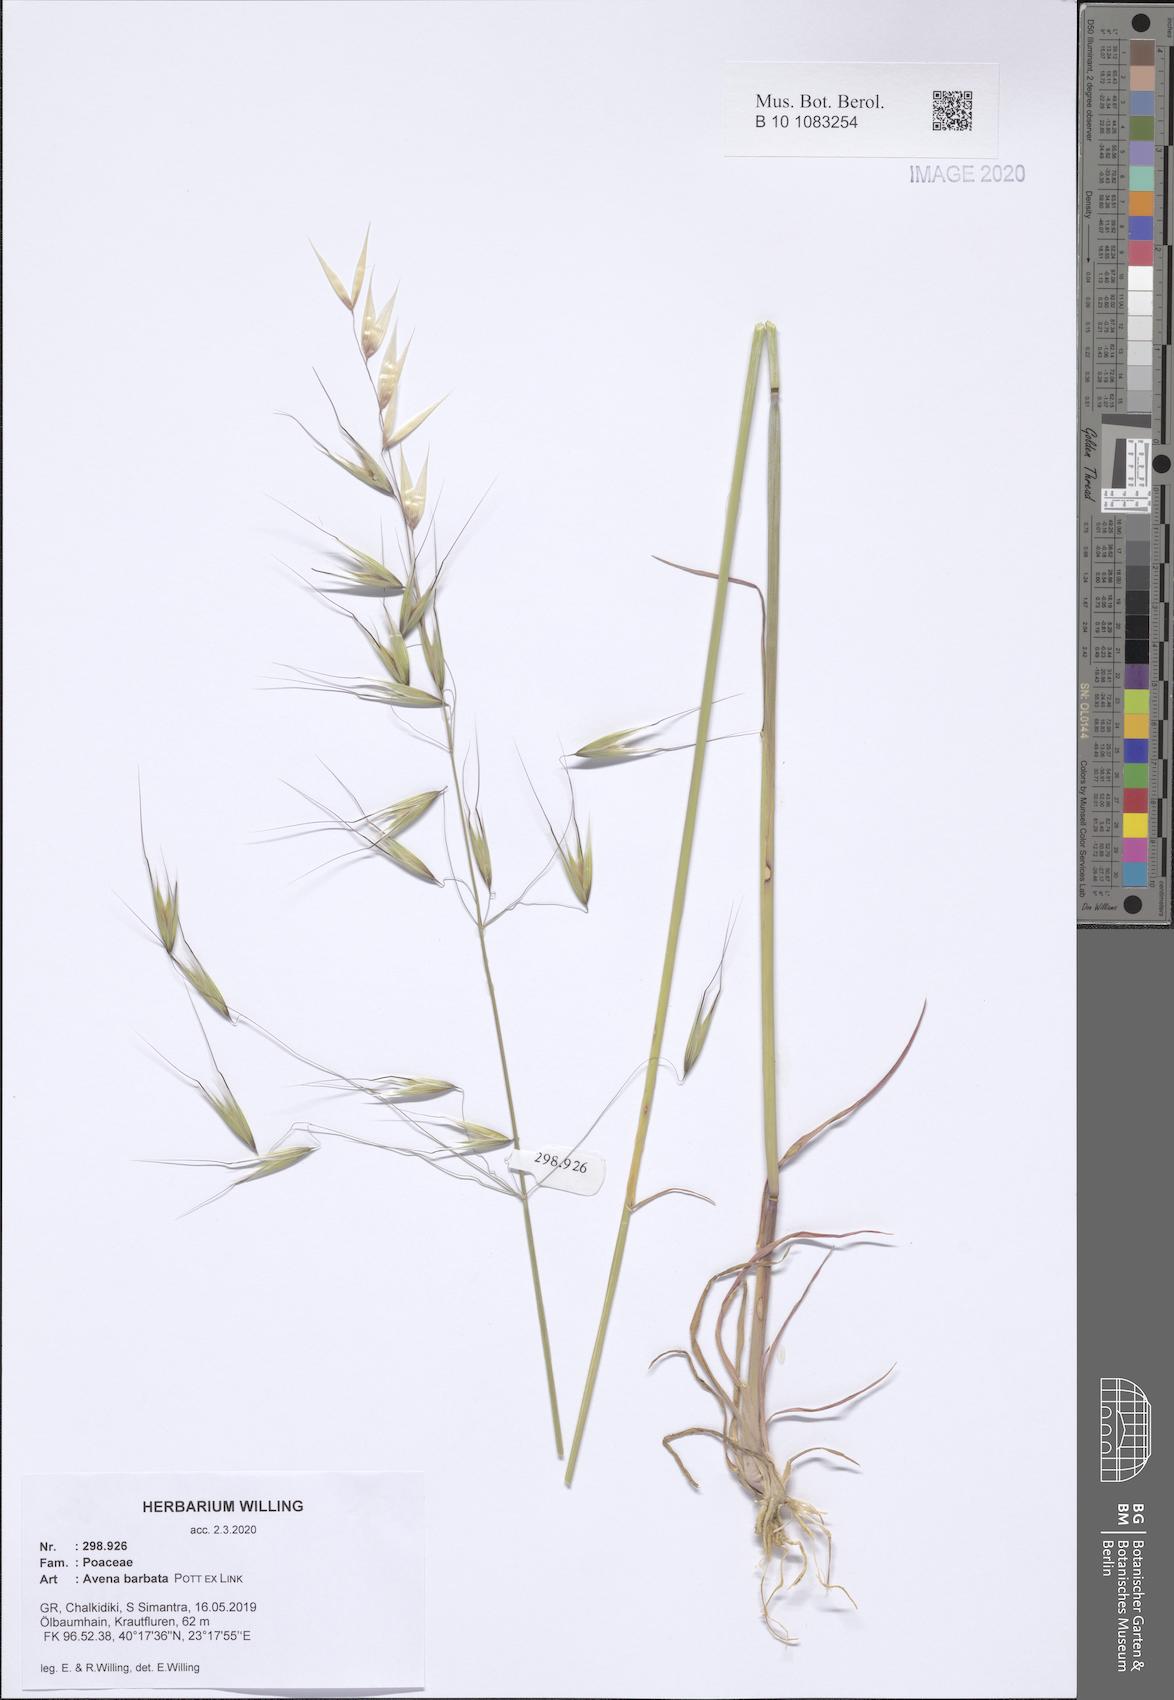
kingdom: Plantae
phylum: Tracheophyta
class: Liliopsida
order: Poales
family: Poaceae
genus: Avena
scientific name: Avena barbata
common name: Slender oat
